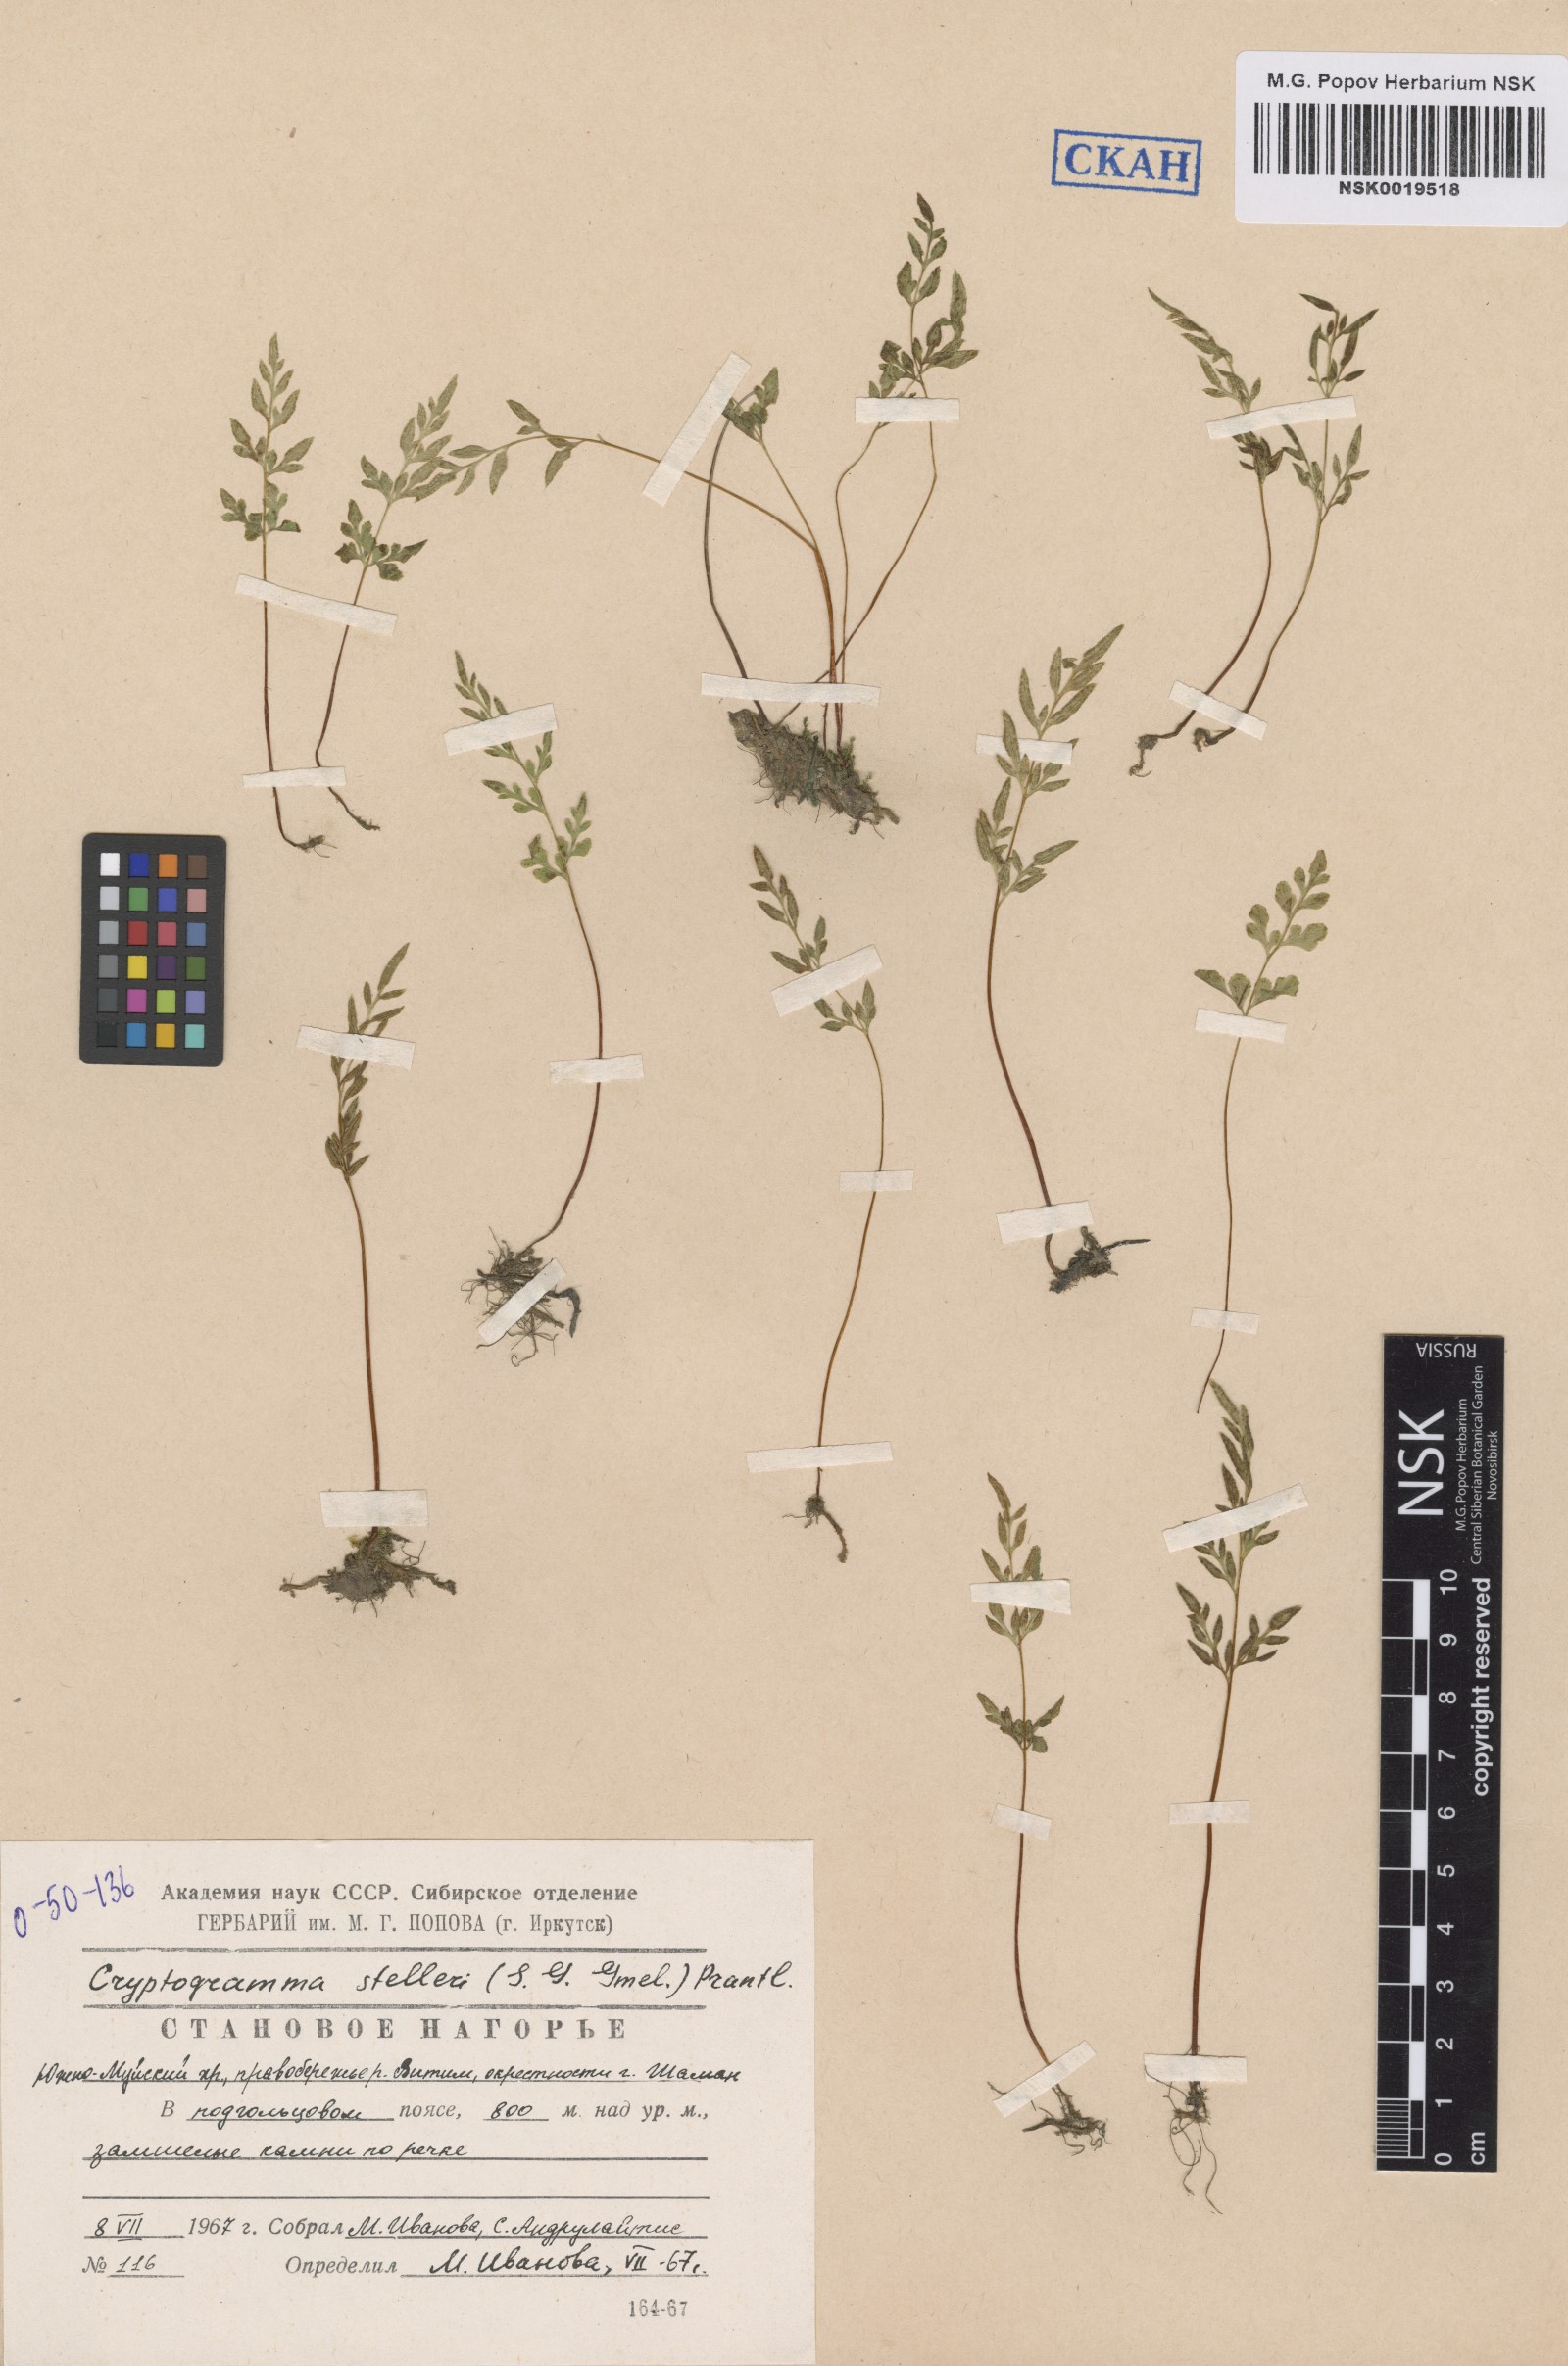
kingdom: Plantae
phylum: Tracheophyta
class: Polypodiopsida
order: Polypodiales
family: Pteridaceae
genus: Cryptogramma
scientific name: Cryptogramma stelleri
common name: Cliff-brake
